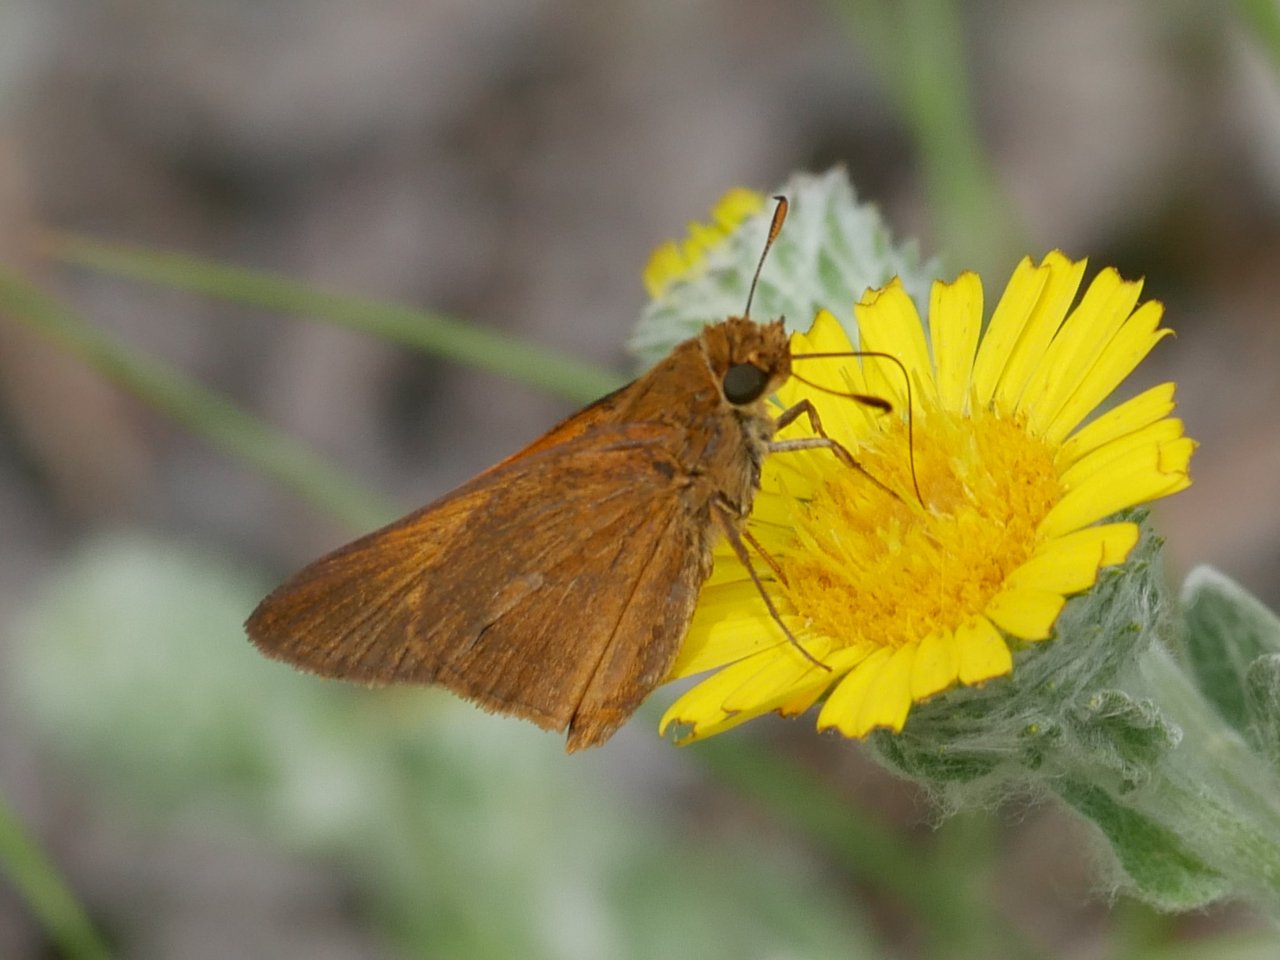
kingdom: Animalia
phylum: Arthropoda
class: Insecta
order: Lepidoptera
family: Hesperiidae
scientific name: Hesperiidae
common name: Skippers
